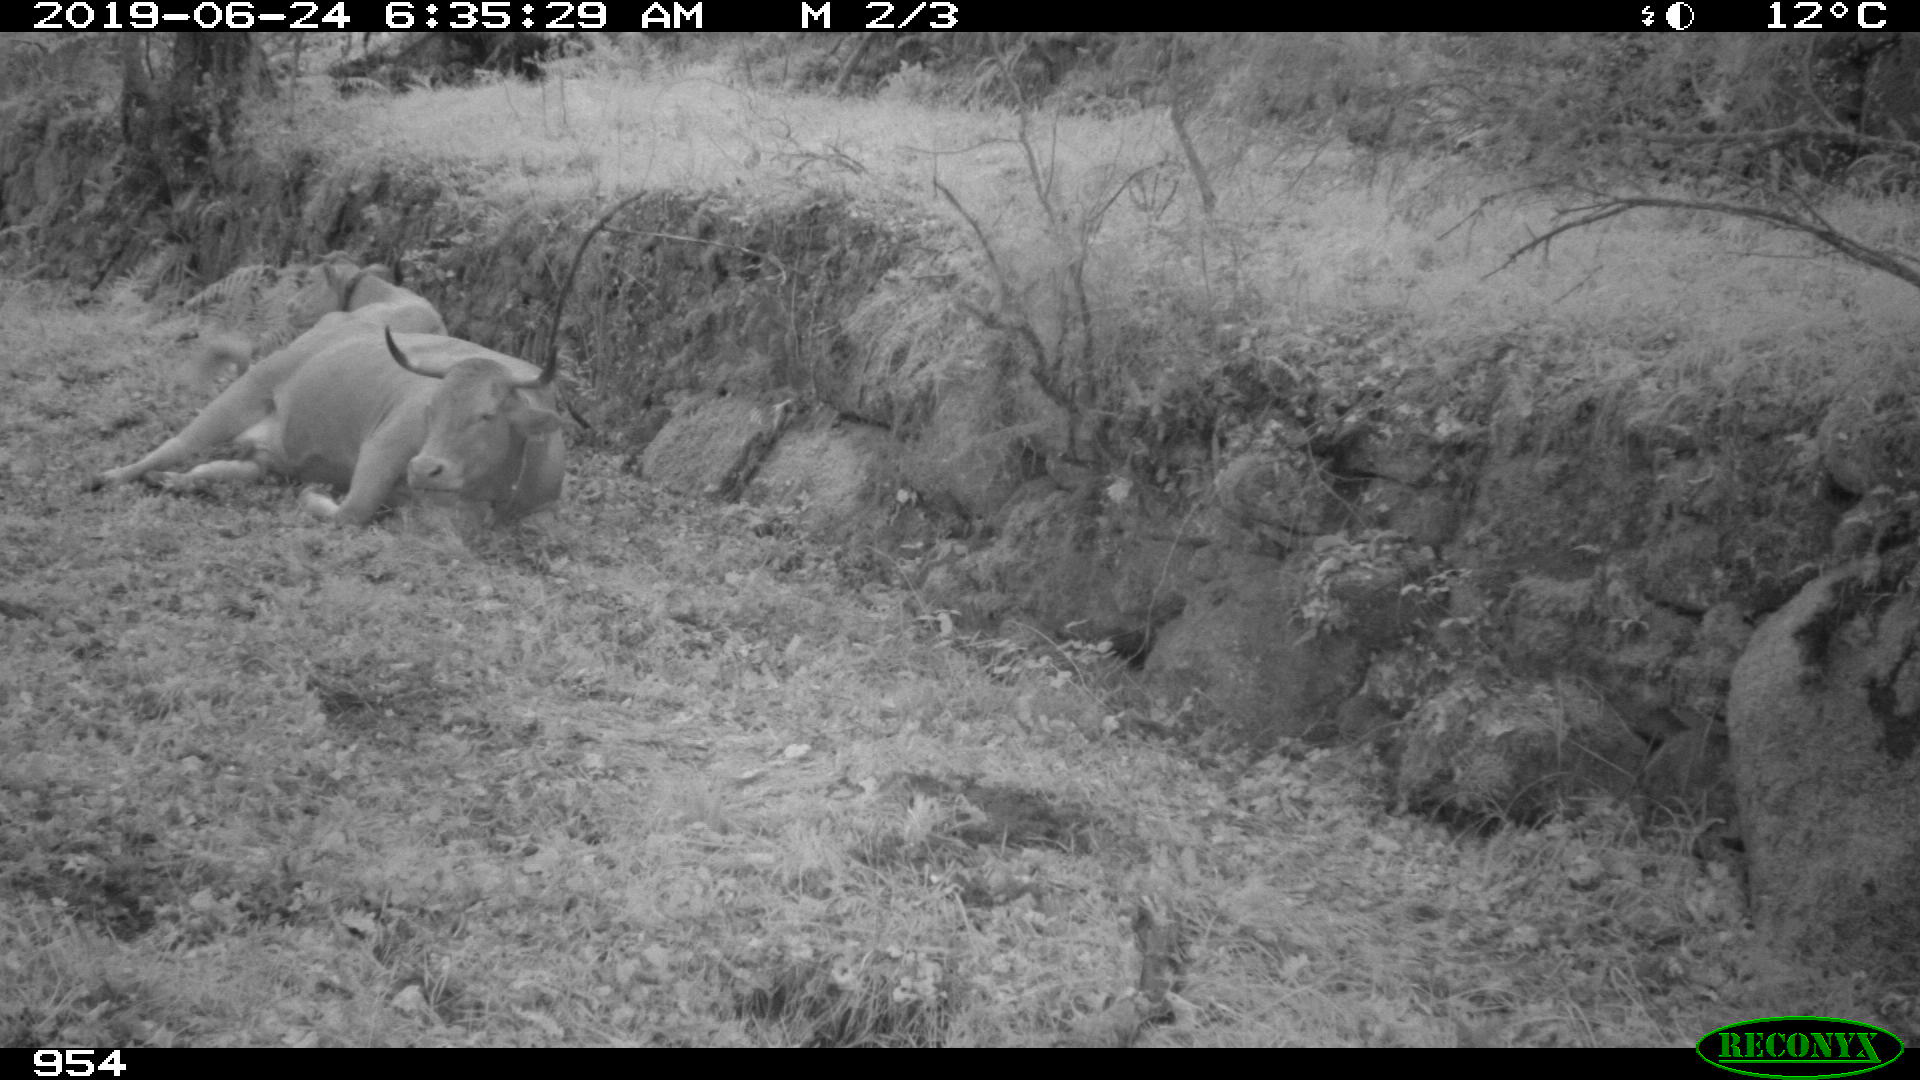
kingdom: Animalia
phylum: Chordata
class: Mammalia
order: Artiodactyla
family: Bovidae
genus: Bos
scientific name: Bos taurus
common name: Domesticated cattle
